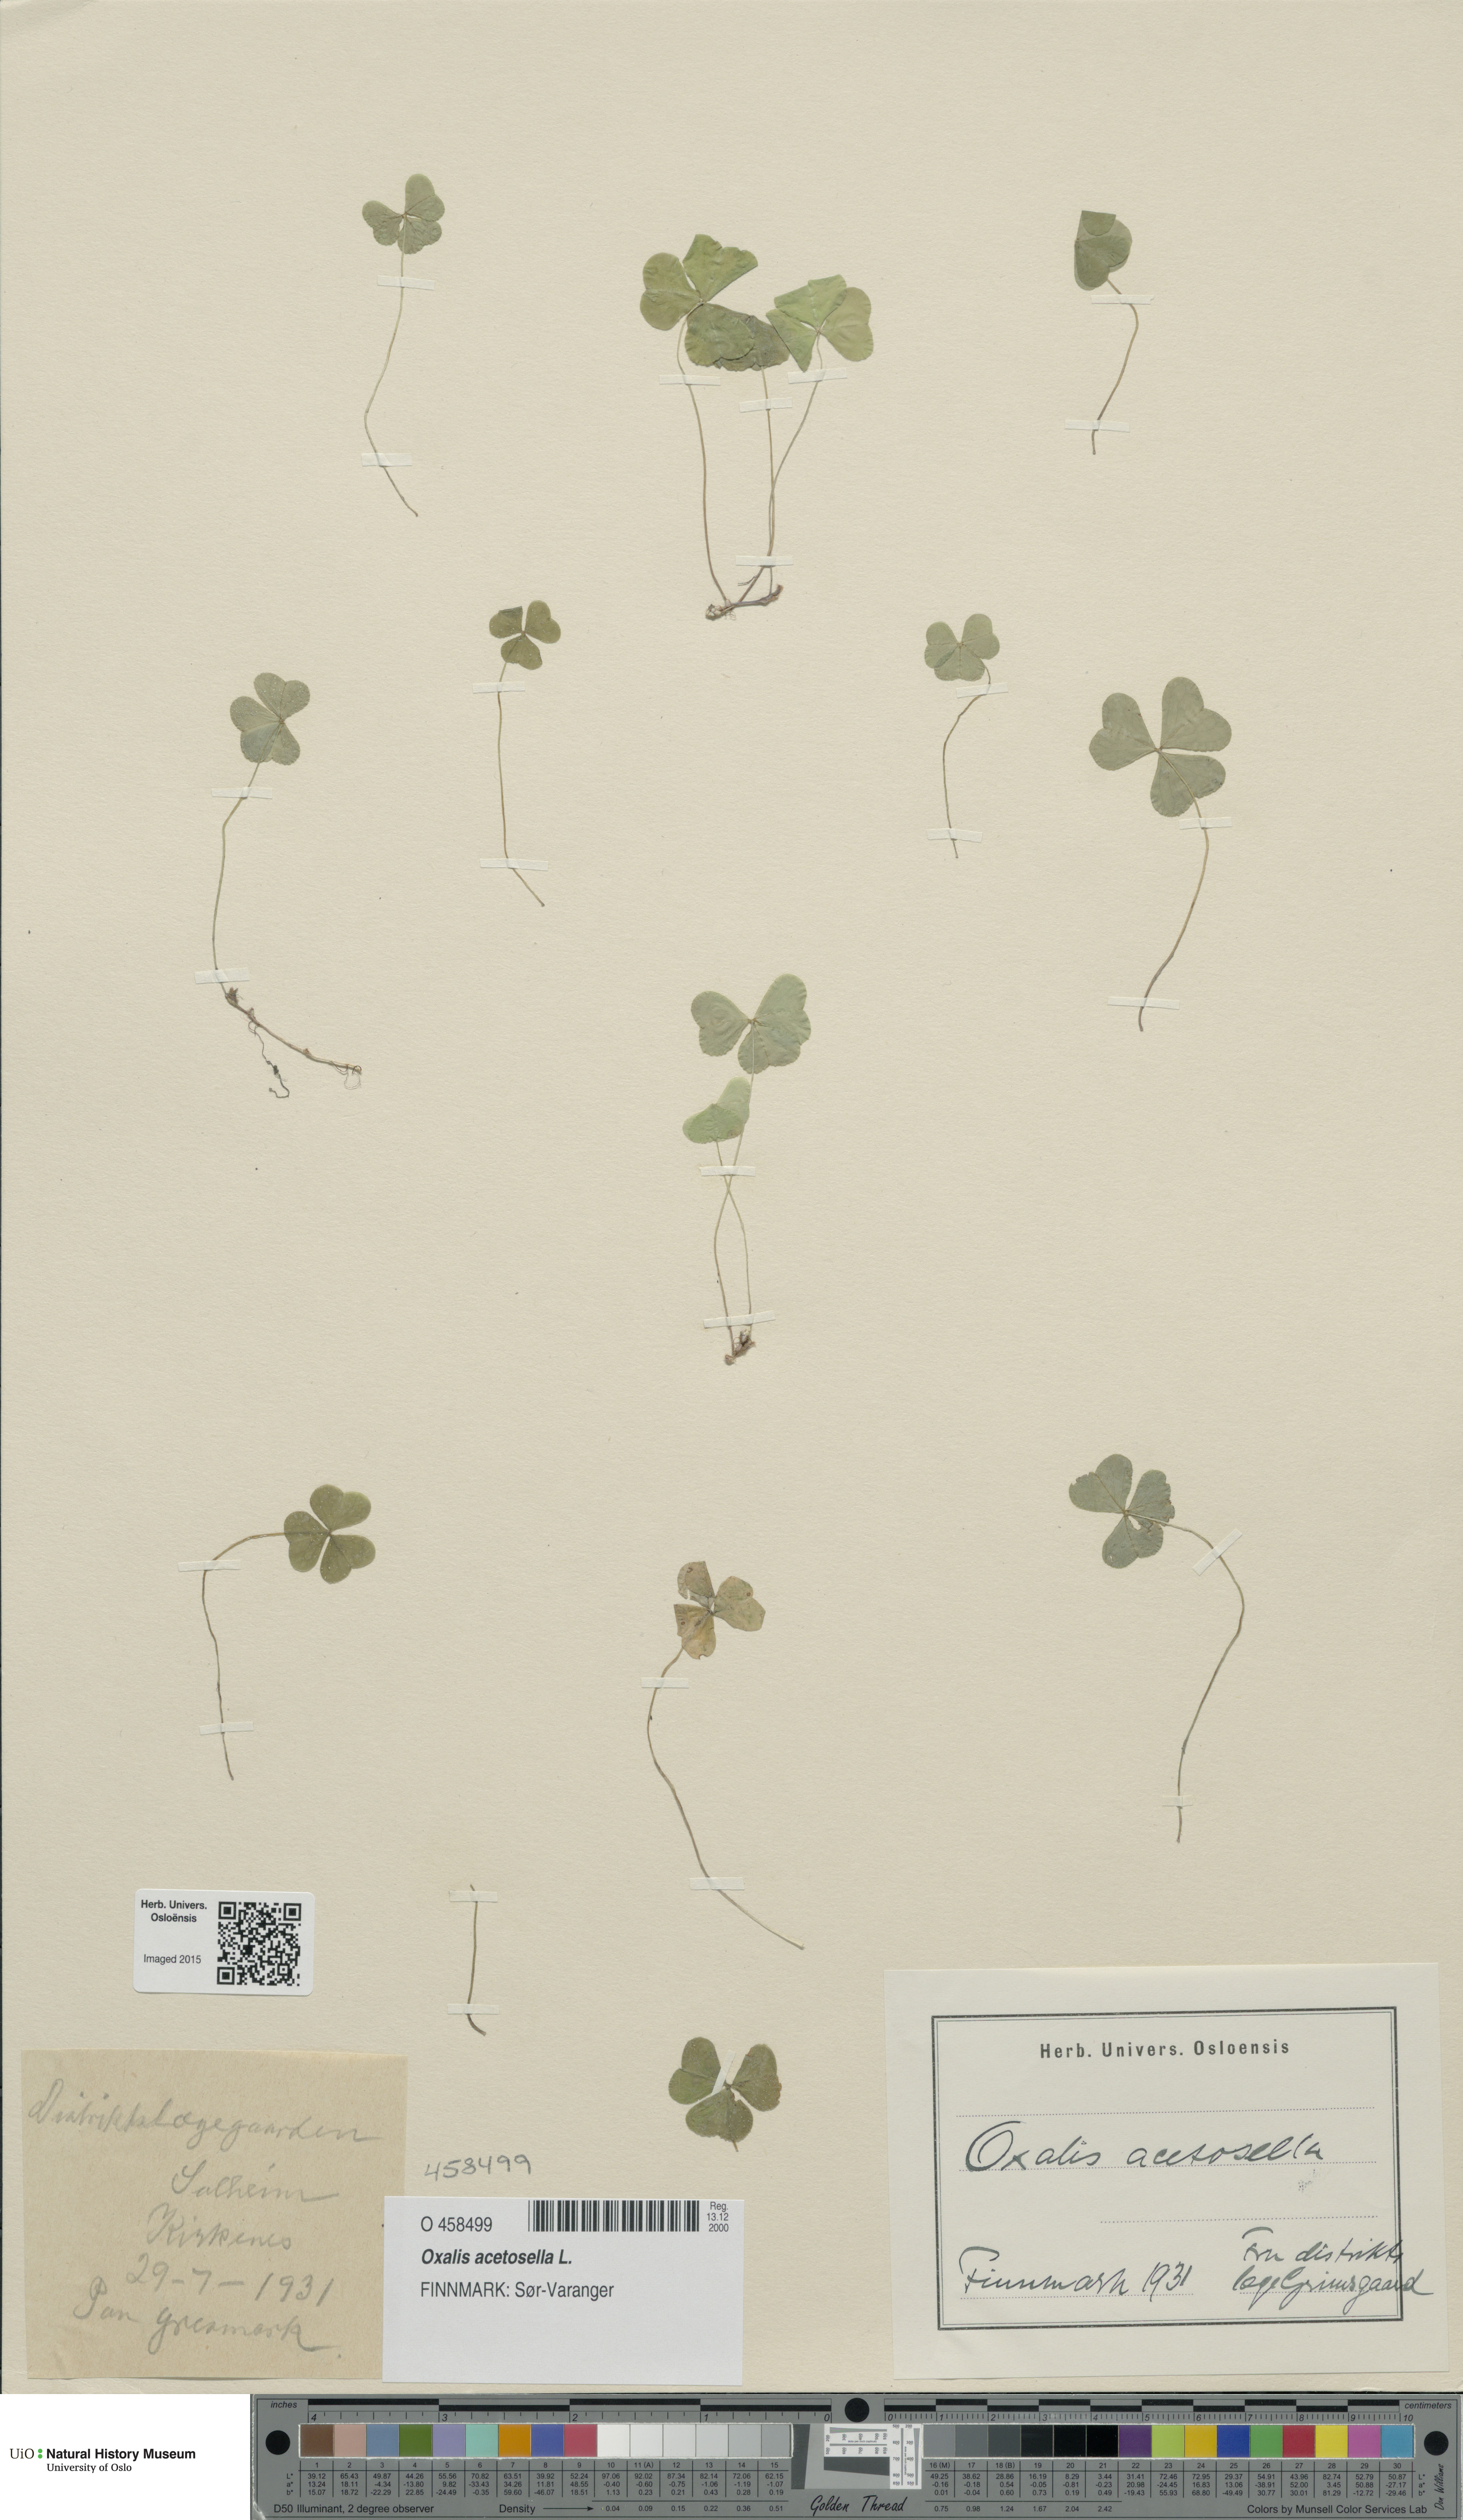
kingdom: Plantae
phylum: Tracheophyta
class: Magnoliopsida
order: Oxalidales
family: Oxalidaceae
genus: Oxalis
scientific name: Oxalis acetosella
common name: Wood-sorrel
